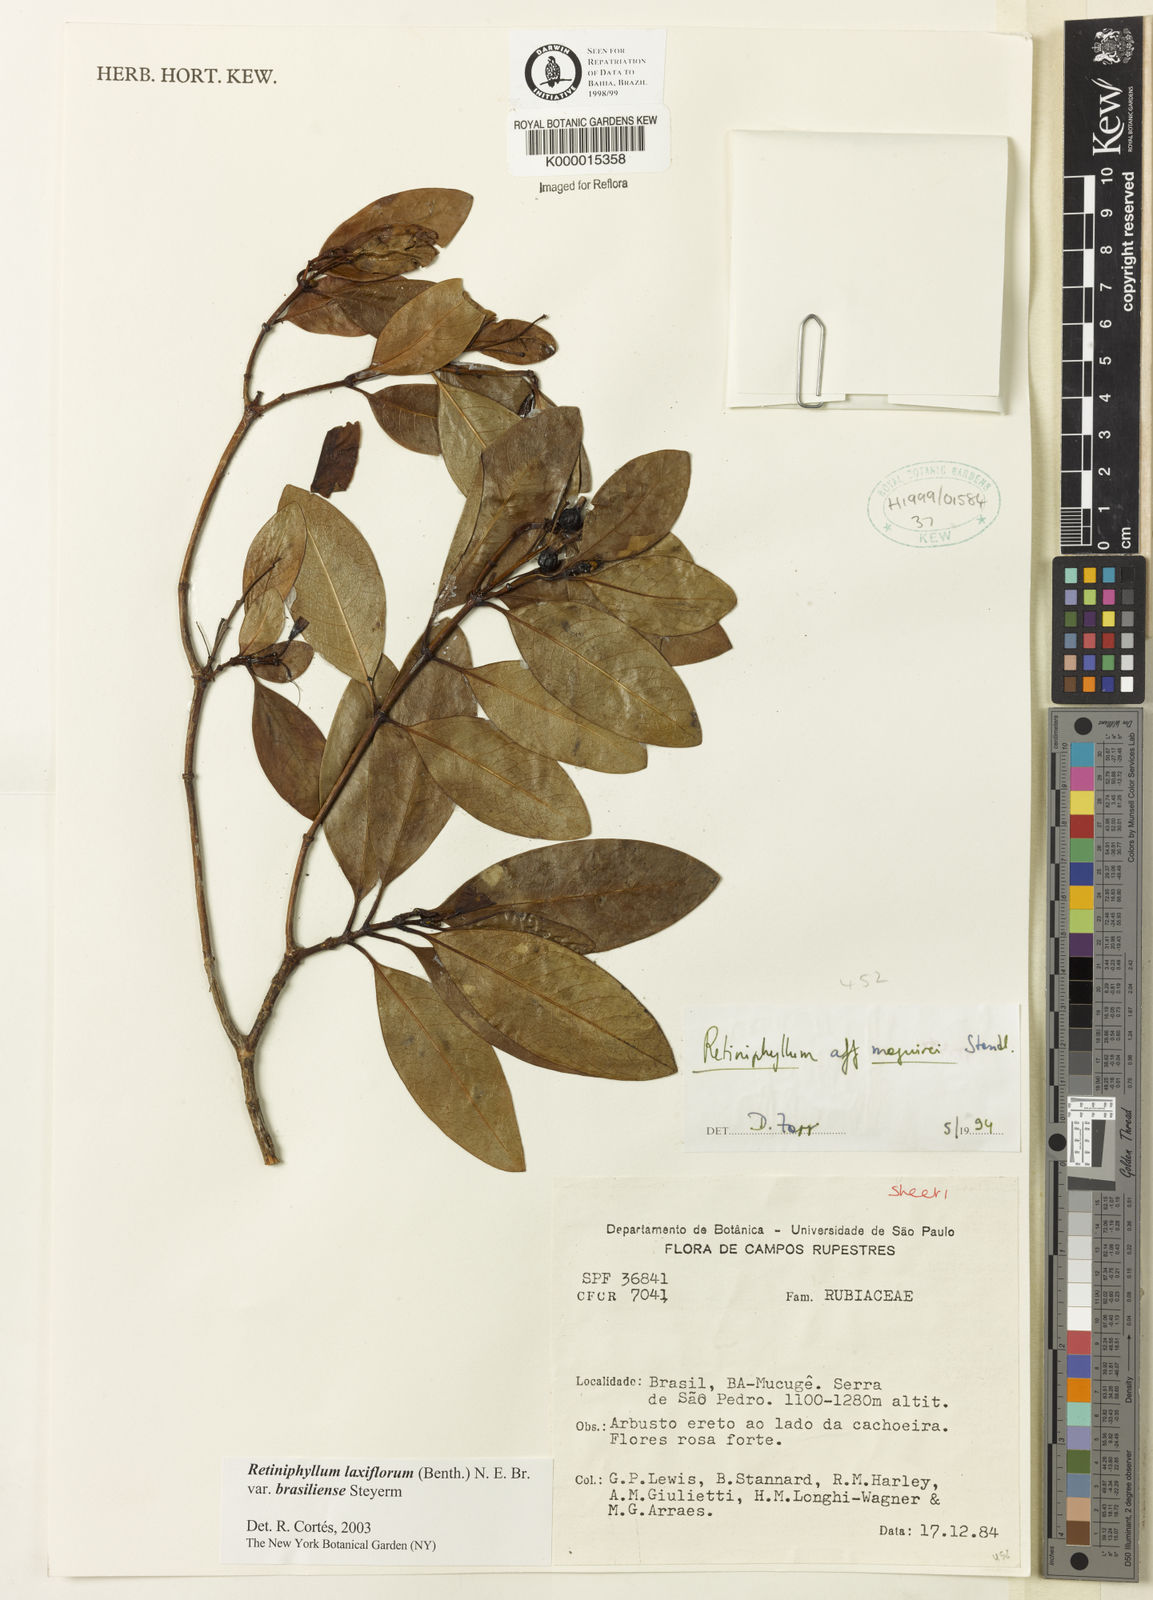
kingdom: Plantae
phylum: Tracheophyta
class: Magnoliopsida
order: Gentianales
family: Rubiaceae
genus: Retiniphyllum
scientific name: Retiniphyllum maguirei
